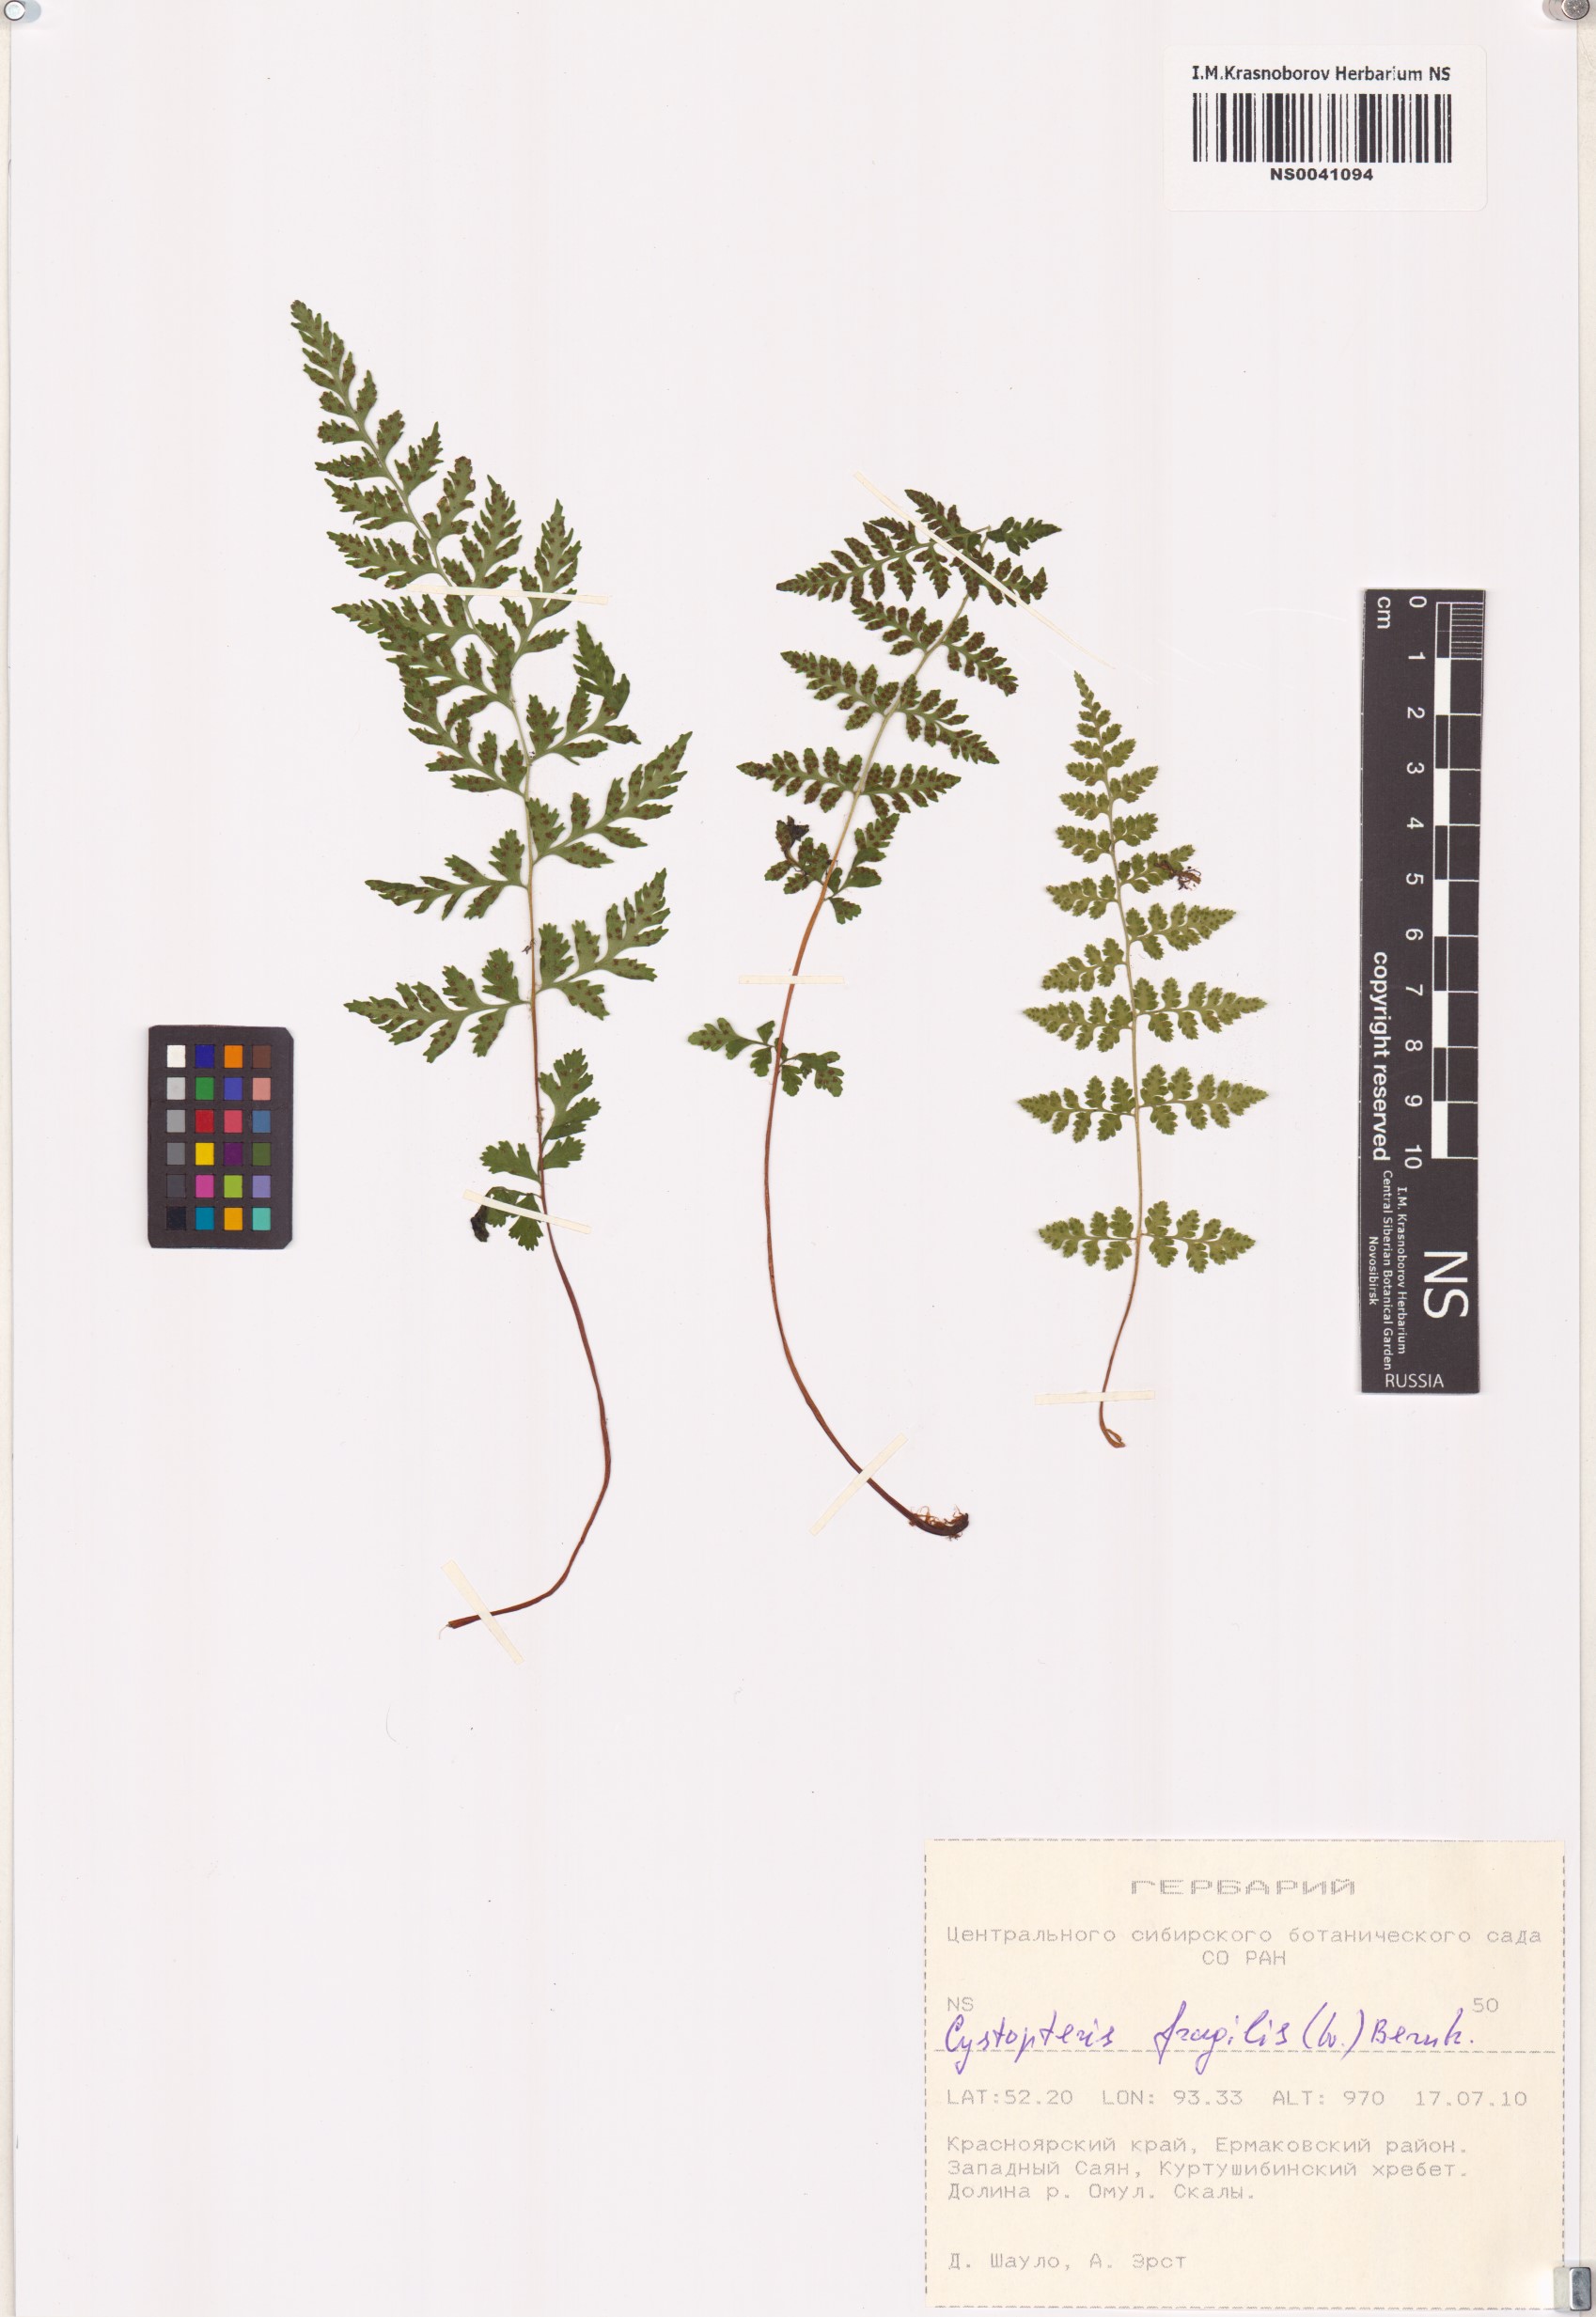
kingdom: Plantae
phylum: Tracheophyta
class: Polypodiopsida
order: Polypodiales
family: Cystopteridaceae
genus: Cystopteris
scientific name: Cystopteris fragilis
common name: Brittle bladder fern
